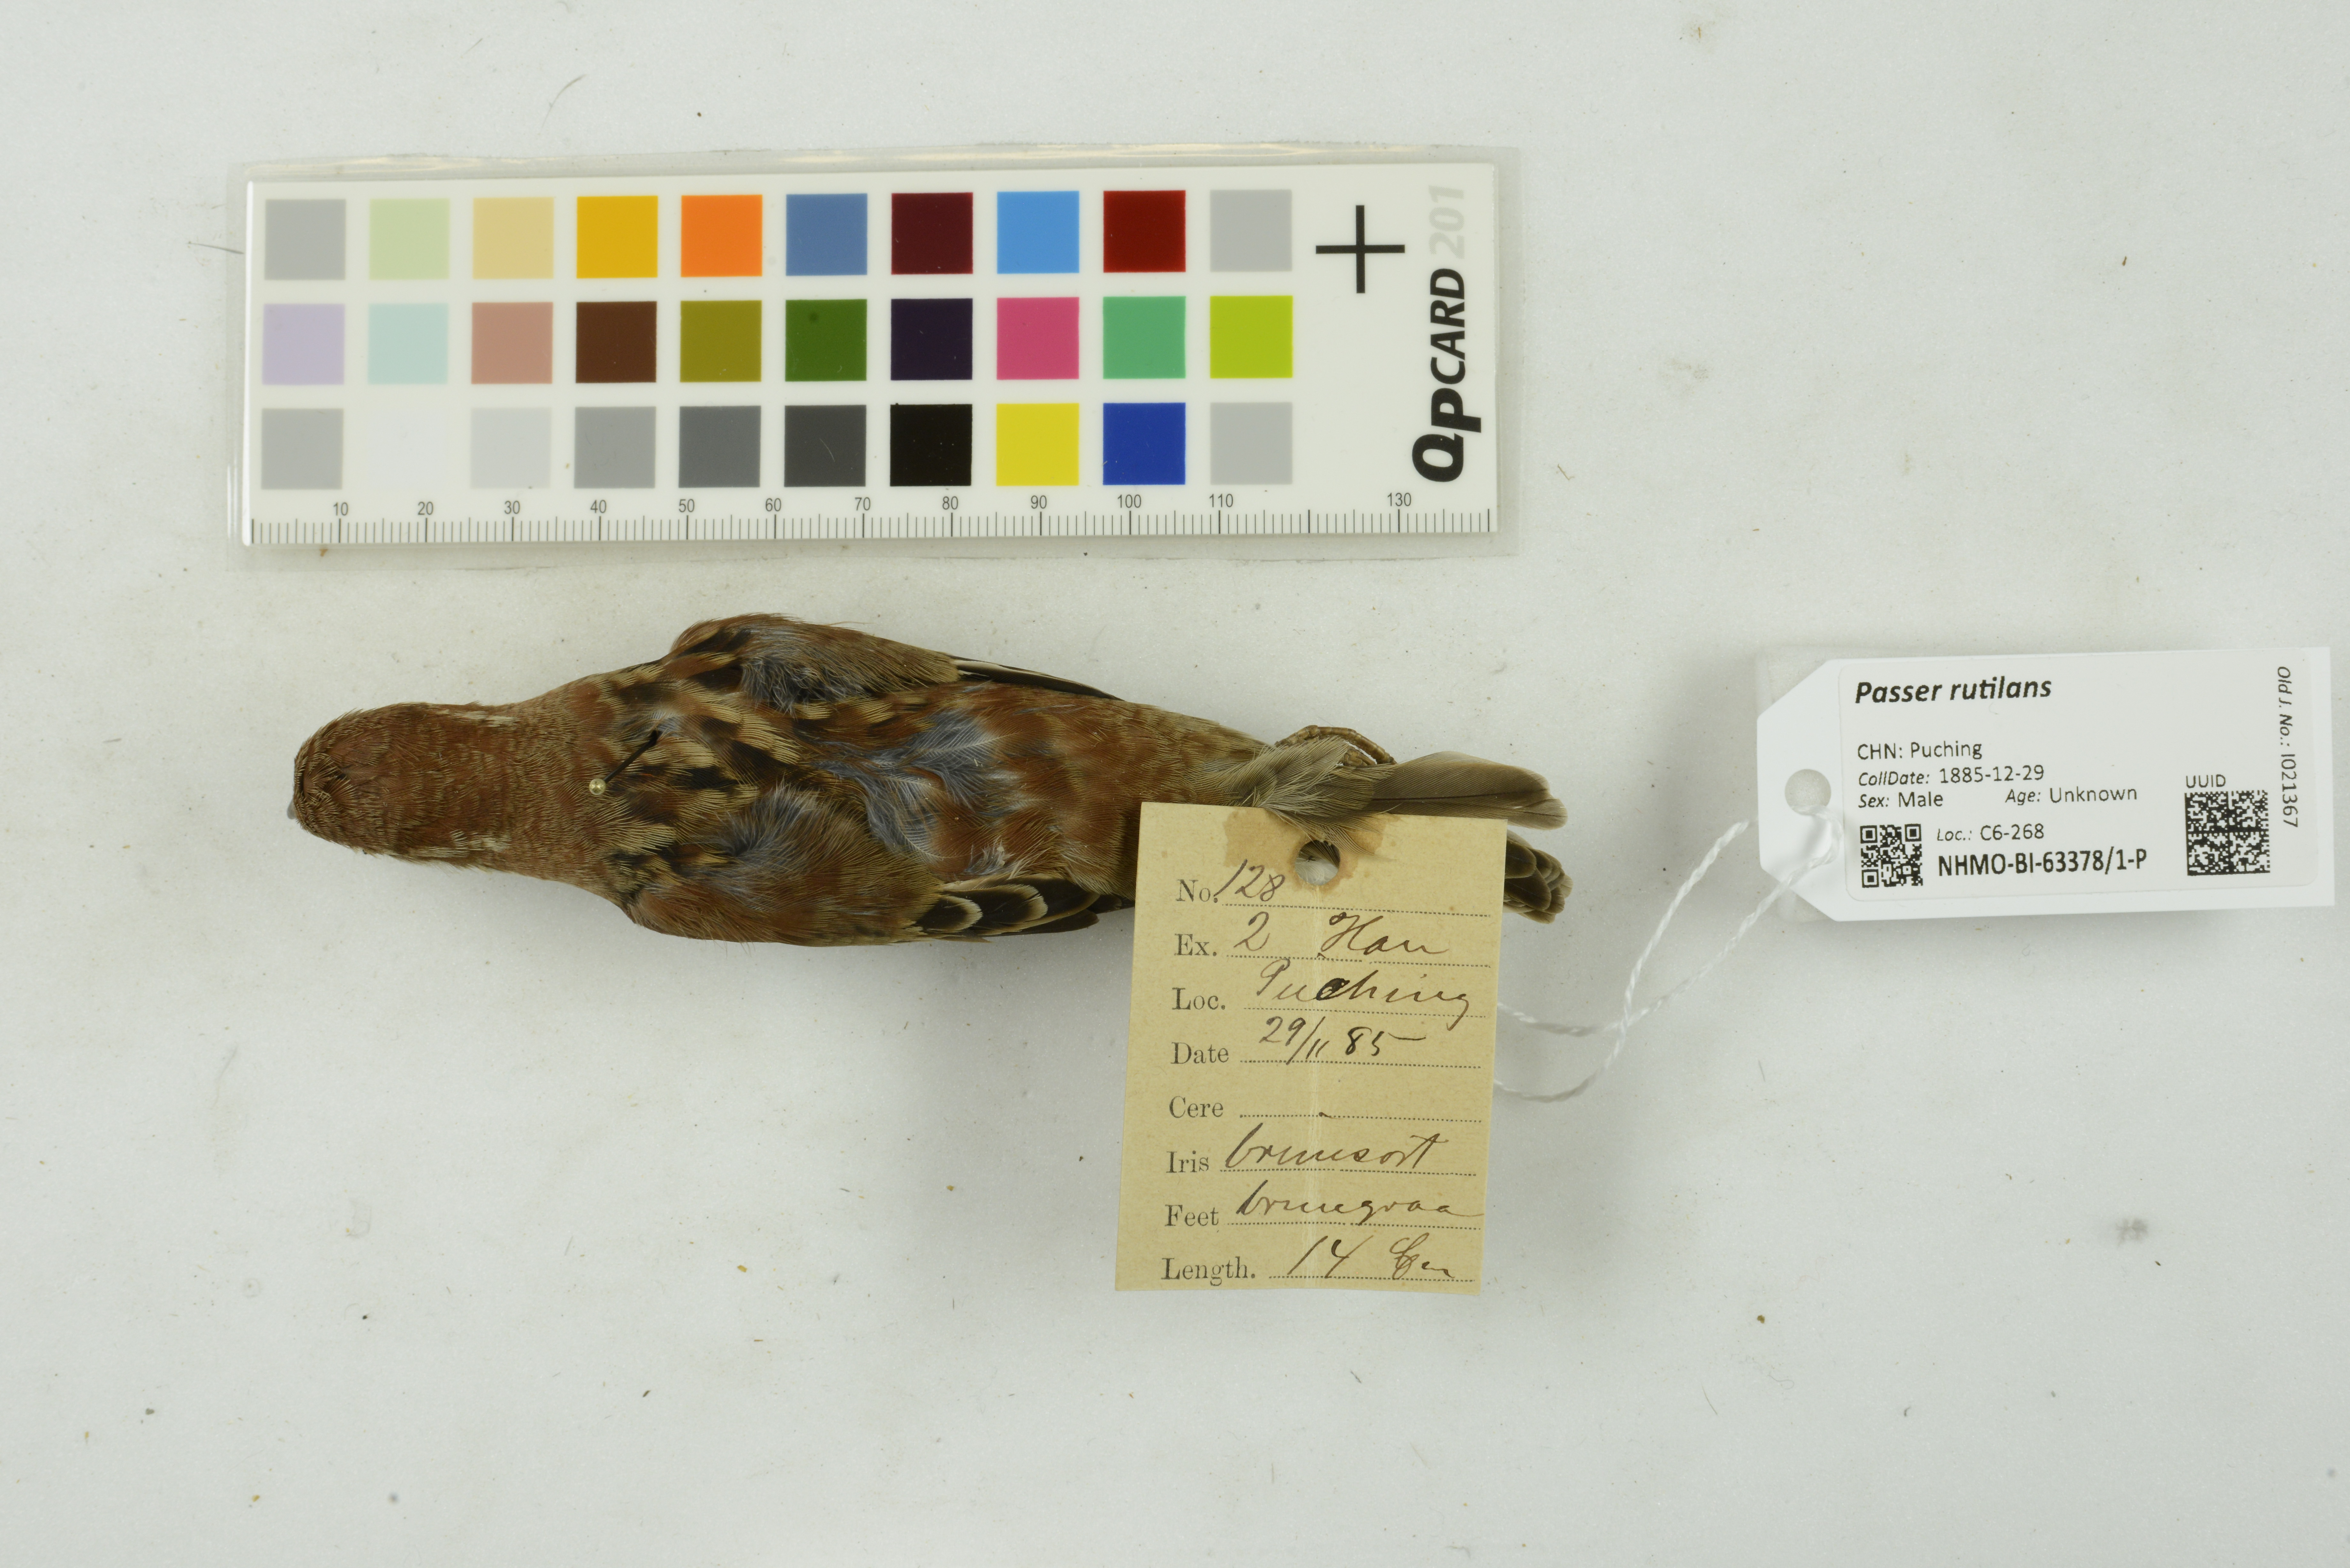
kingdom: Animalia
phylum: Chordata
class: Aves
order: Passeriformes
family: Passeridae
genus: Passer
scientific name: Passer rutilans
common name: Russet sparrow
